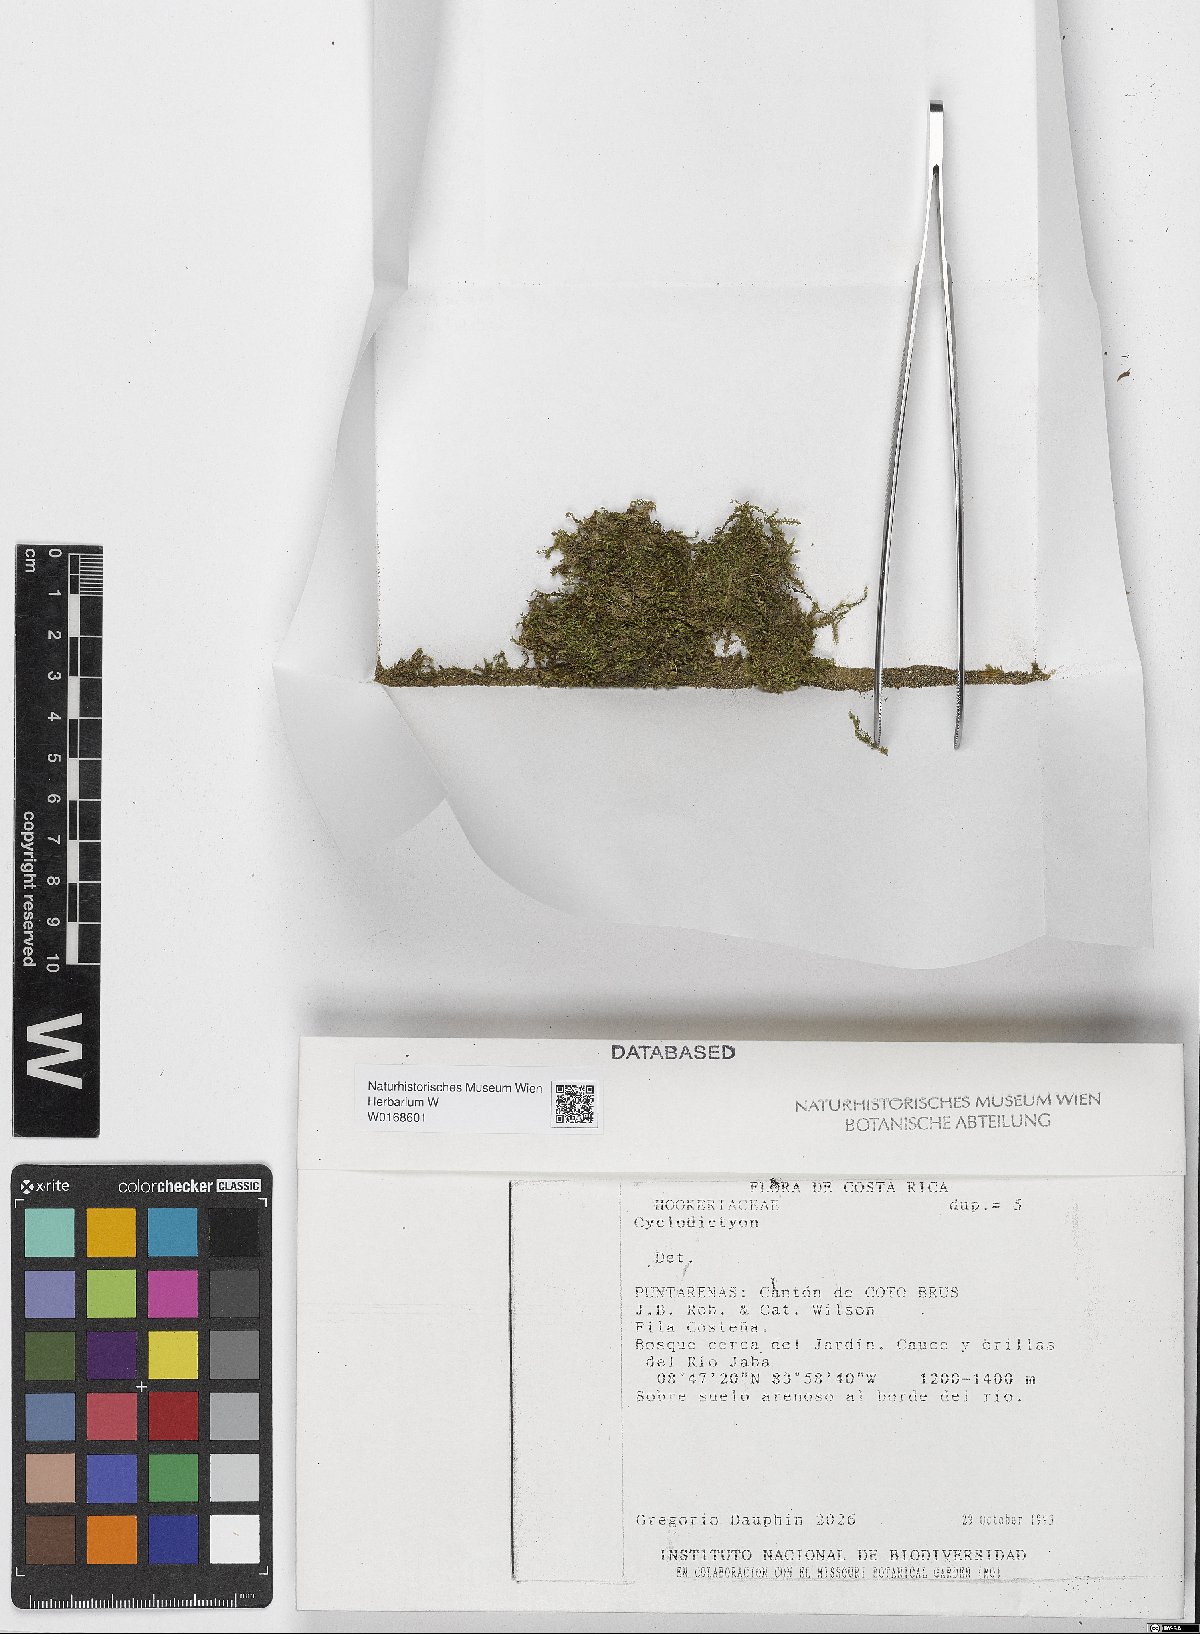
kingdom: Plantae
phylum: Bryophyta
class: Bryopsida
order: Hookeriales
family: Pilotrichaceae
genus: Cyclodictyon
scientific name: Cyclodictyon
